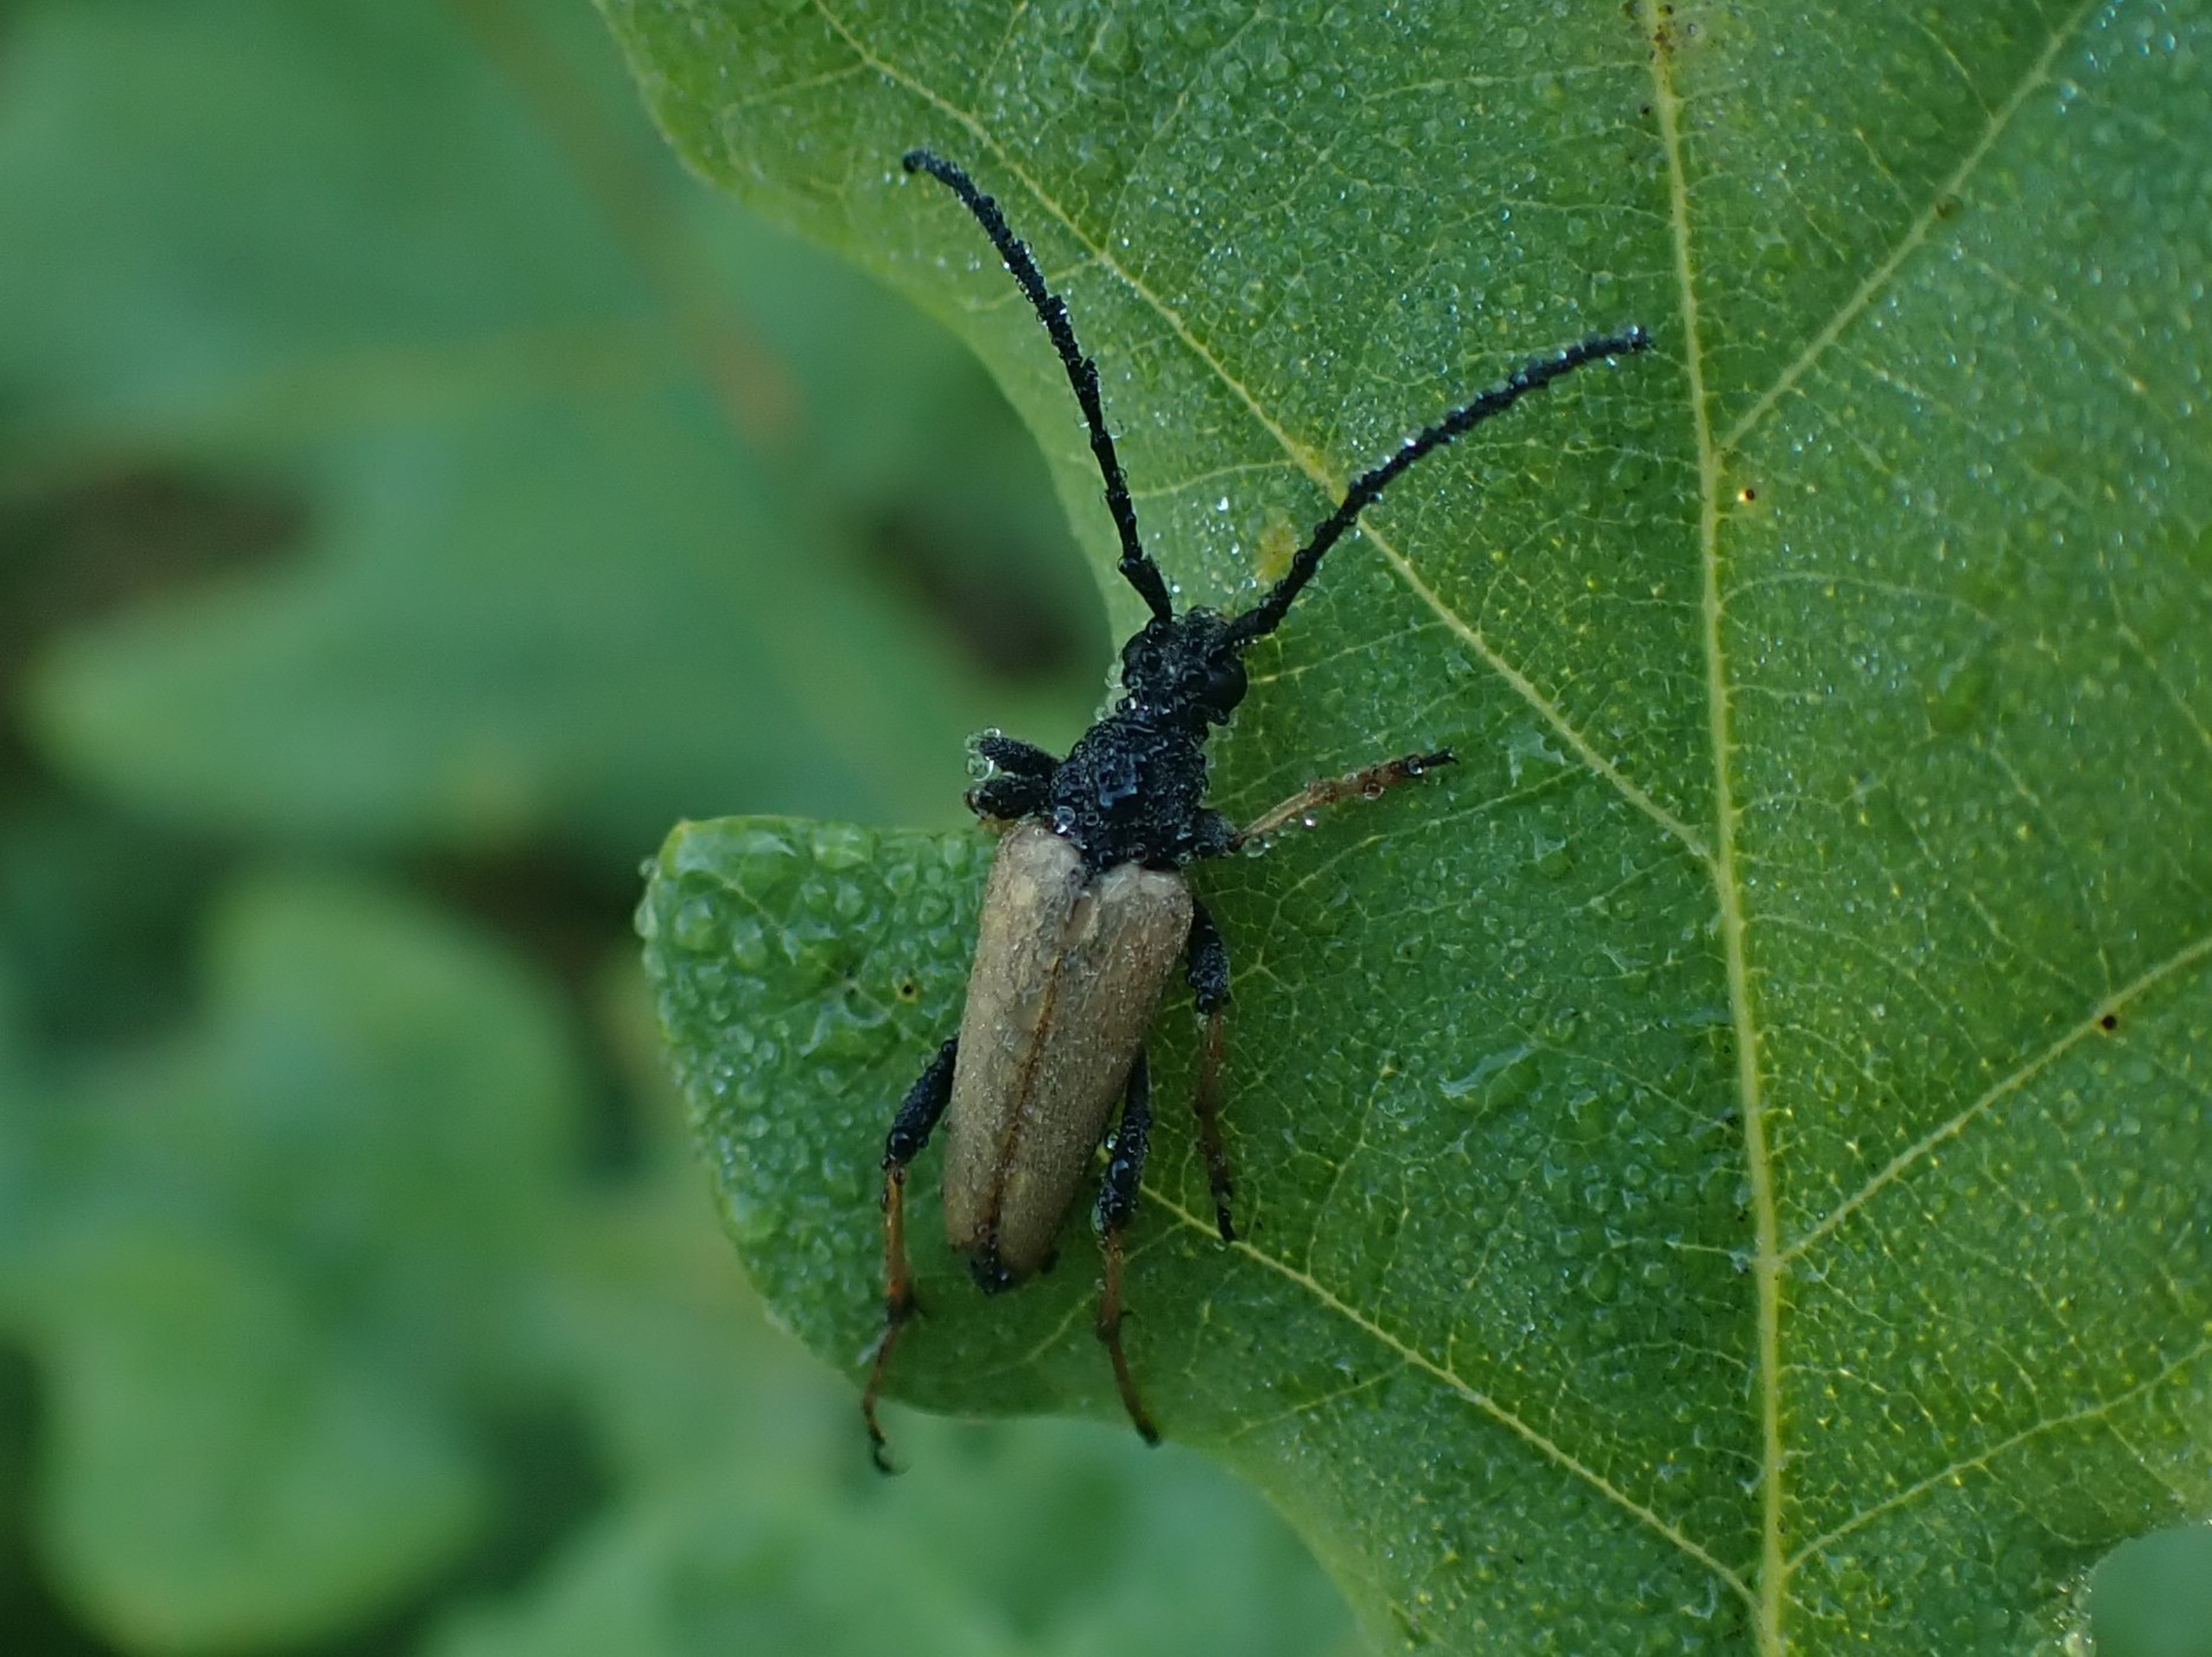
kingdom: Animalia
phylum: Arthropoda
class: Insecta
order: Coleoptera
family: Cerambycidae
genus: Stictoleptura
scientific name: Stictoleptura rubra
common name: Rød blomsterbuk
